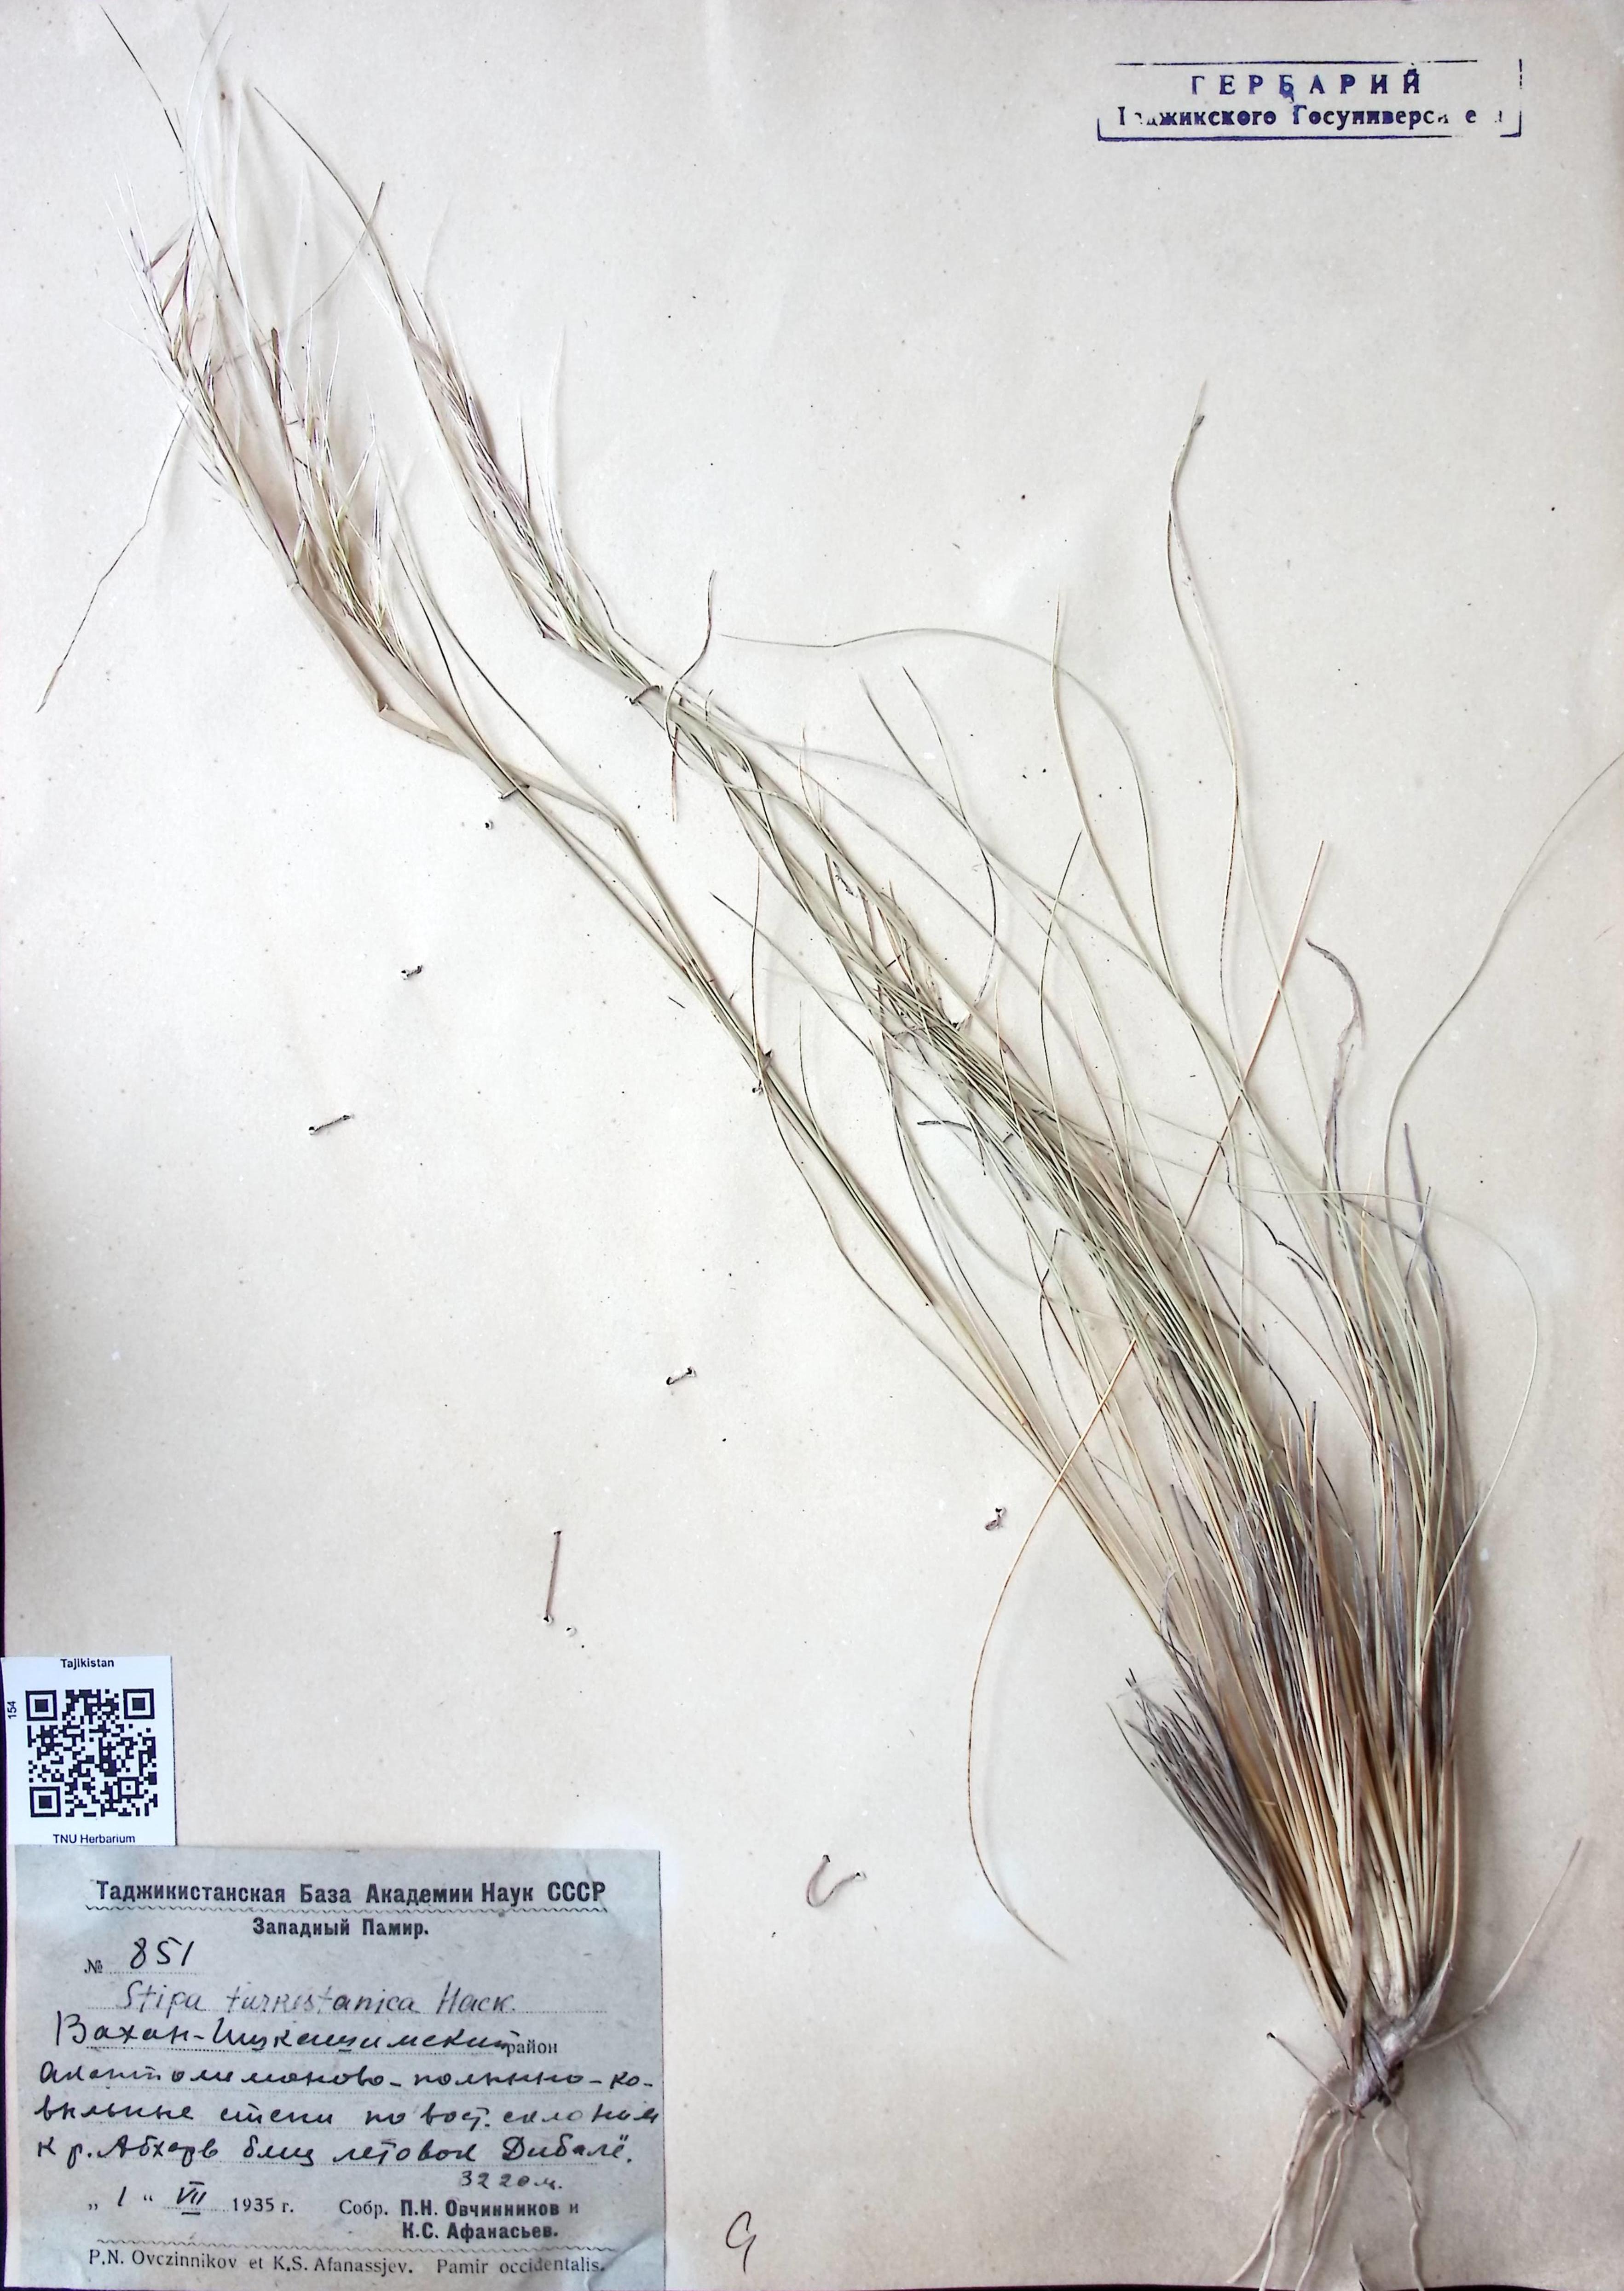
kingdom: Plantae
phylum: Tracheophyta
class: Liliopsida
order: Poales
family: Poaceae
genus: Stipa
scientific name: Stipa turkestanica
